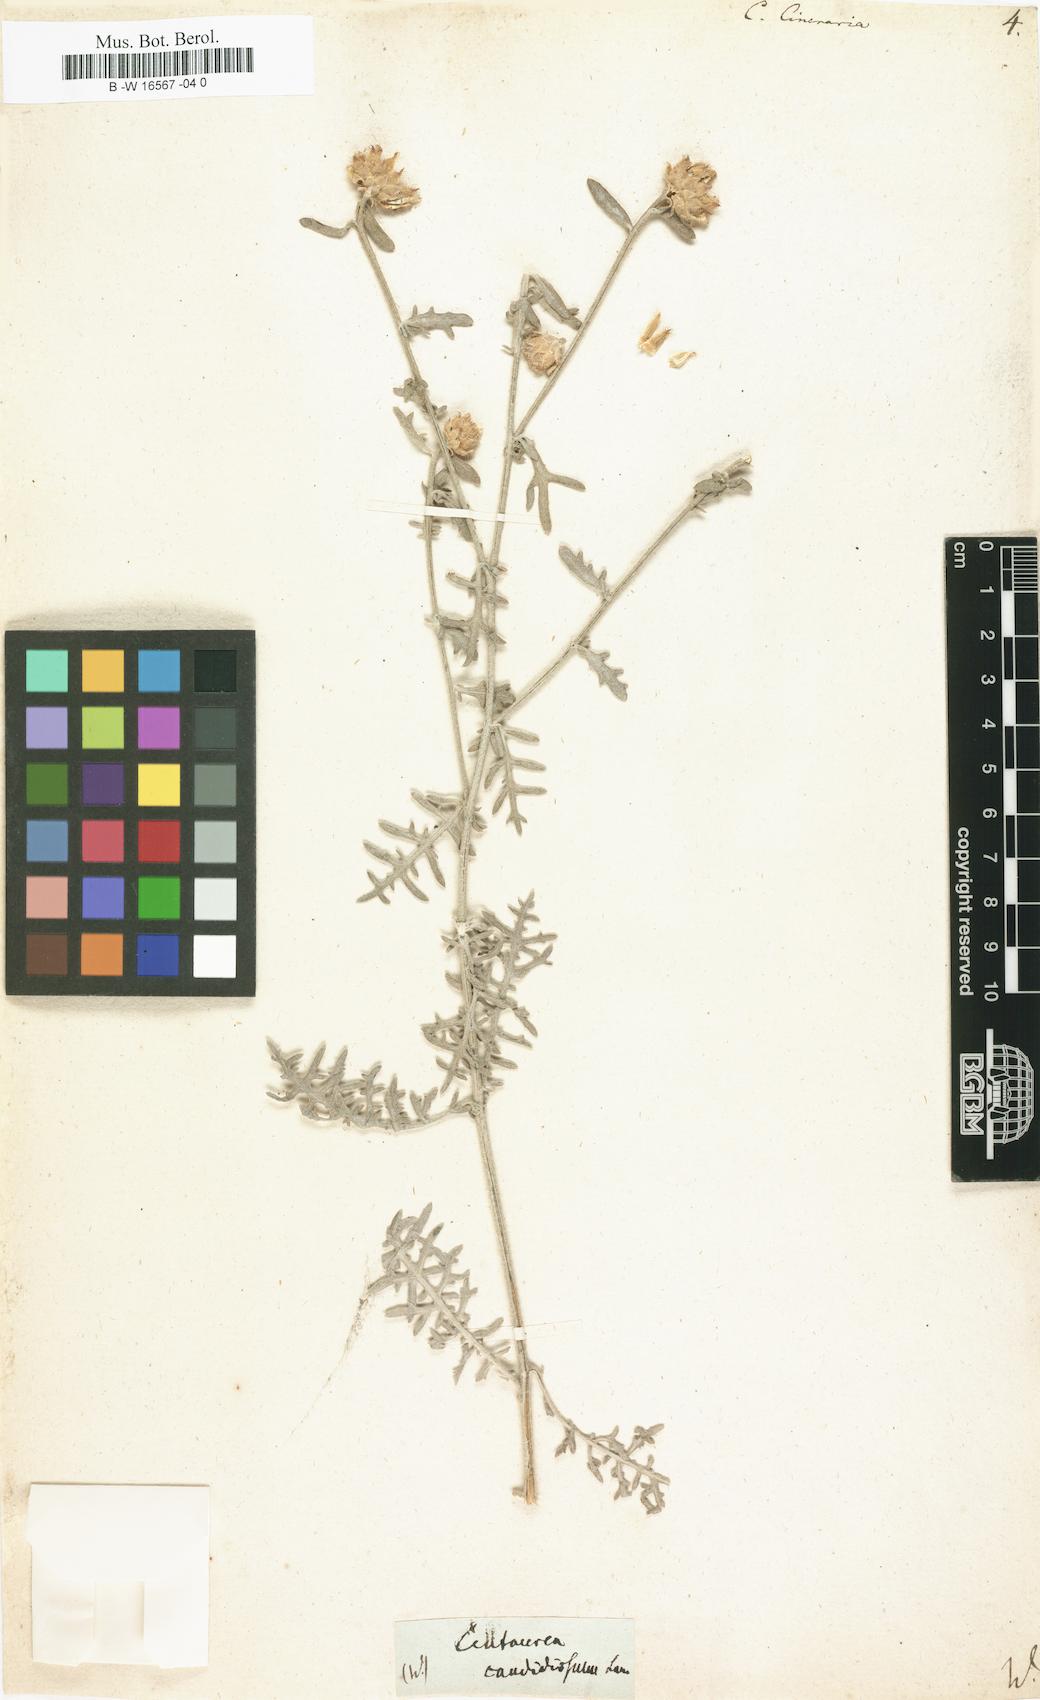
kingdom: Plantae
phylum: Tracheophyta
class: Magnoliopsida
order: Asterales
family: Asteraceae
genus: Centaurea
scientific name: Centaurea cineraria
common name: Dusty miller
